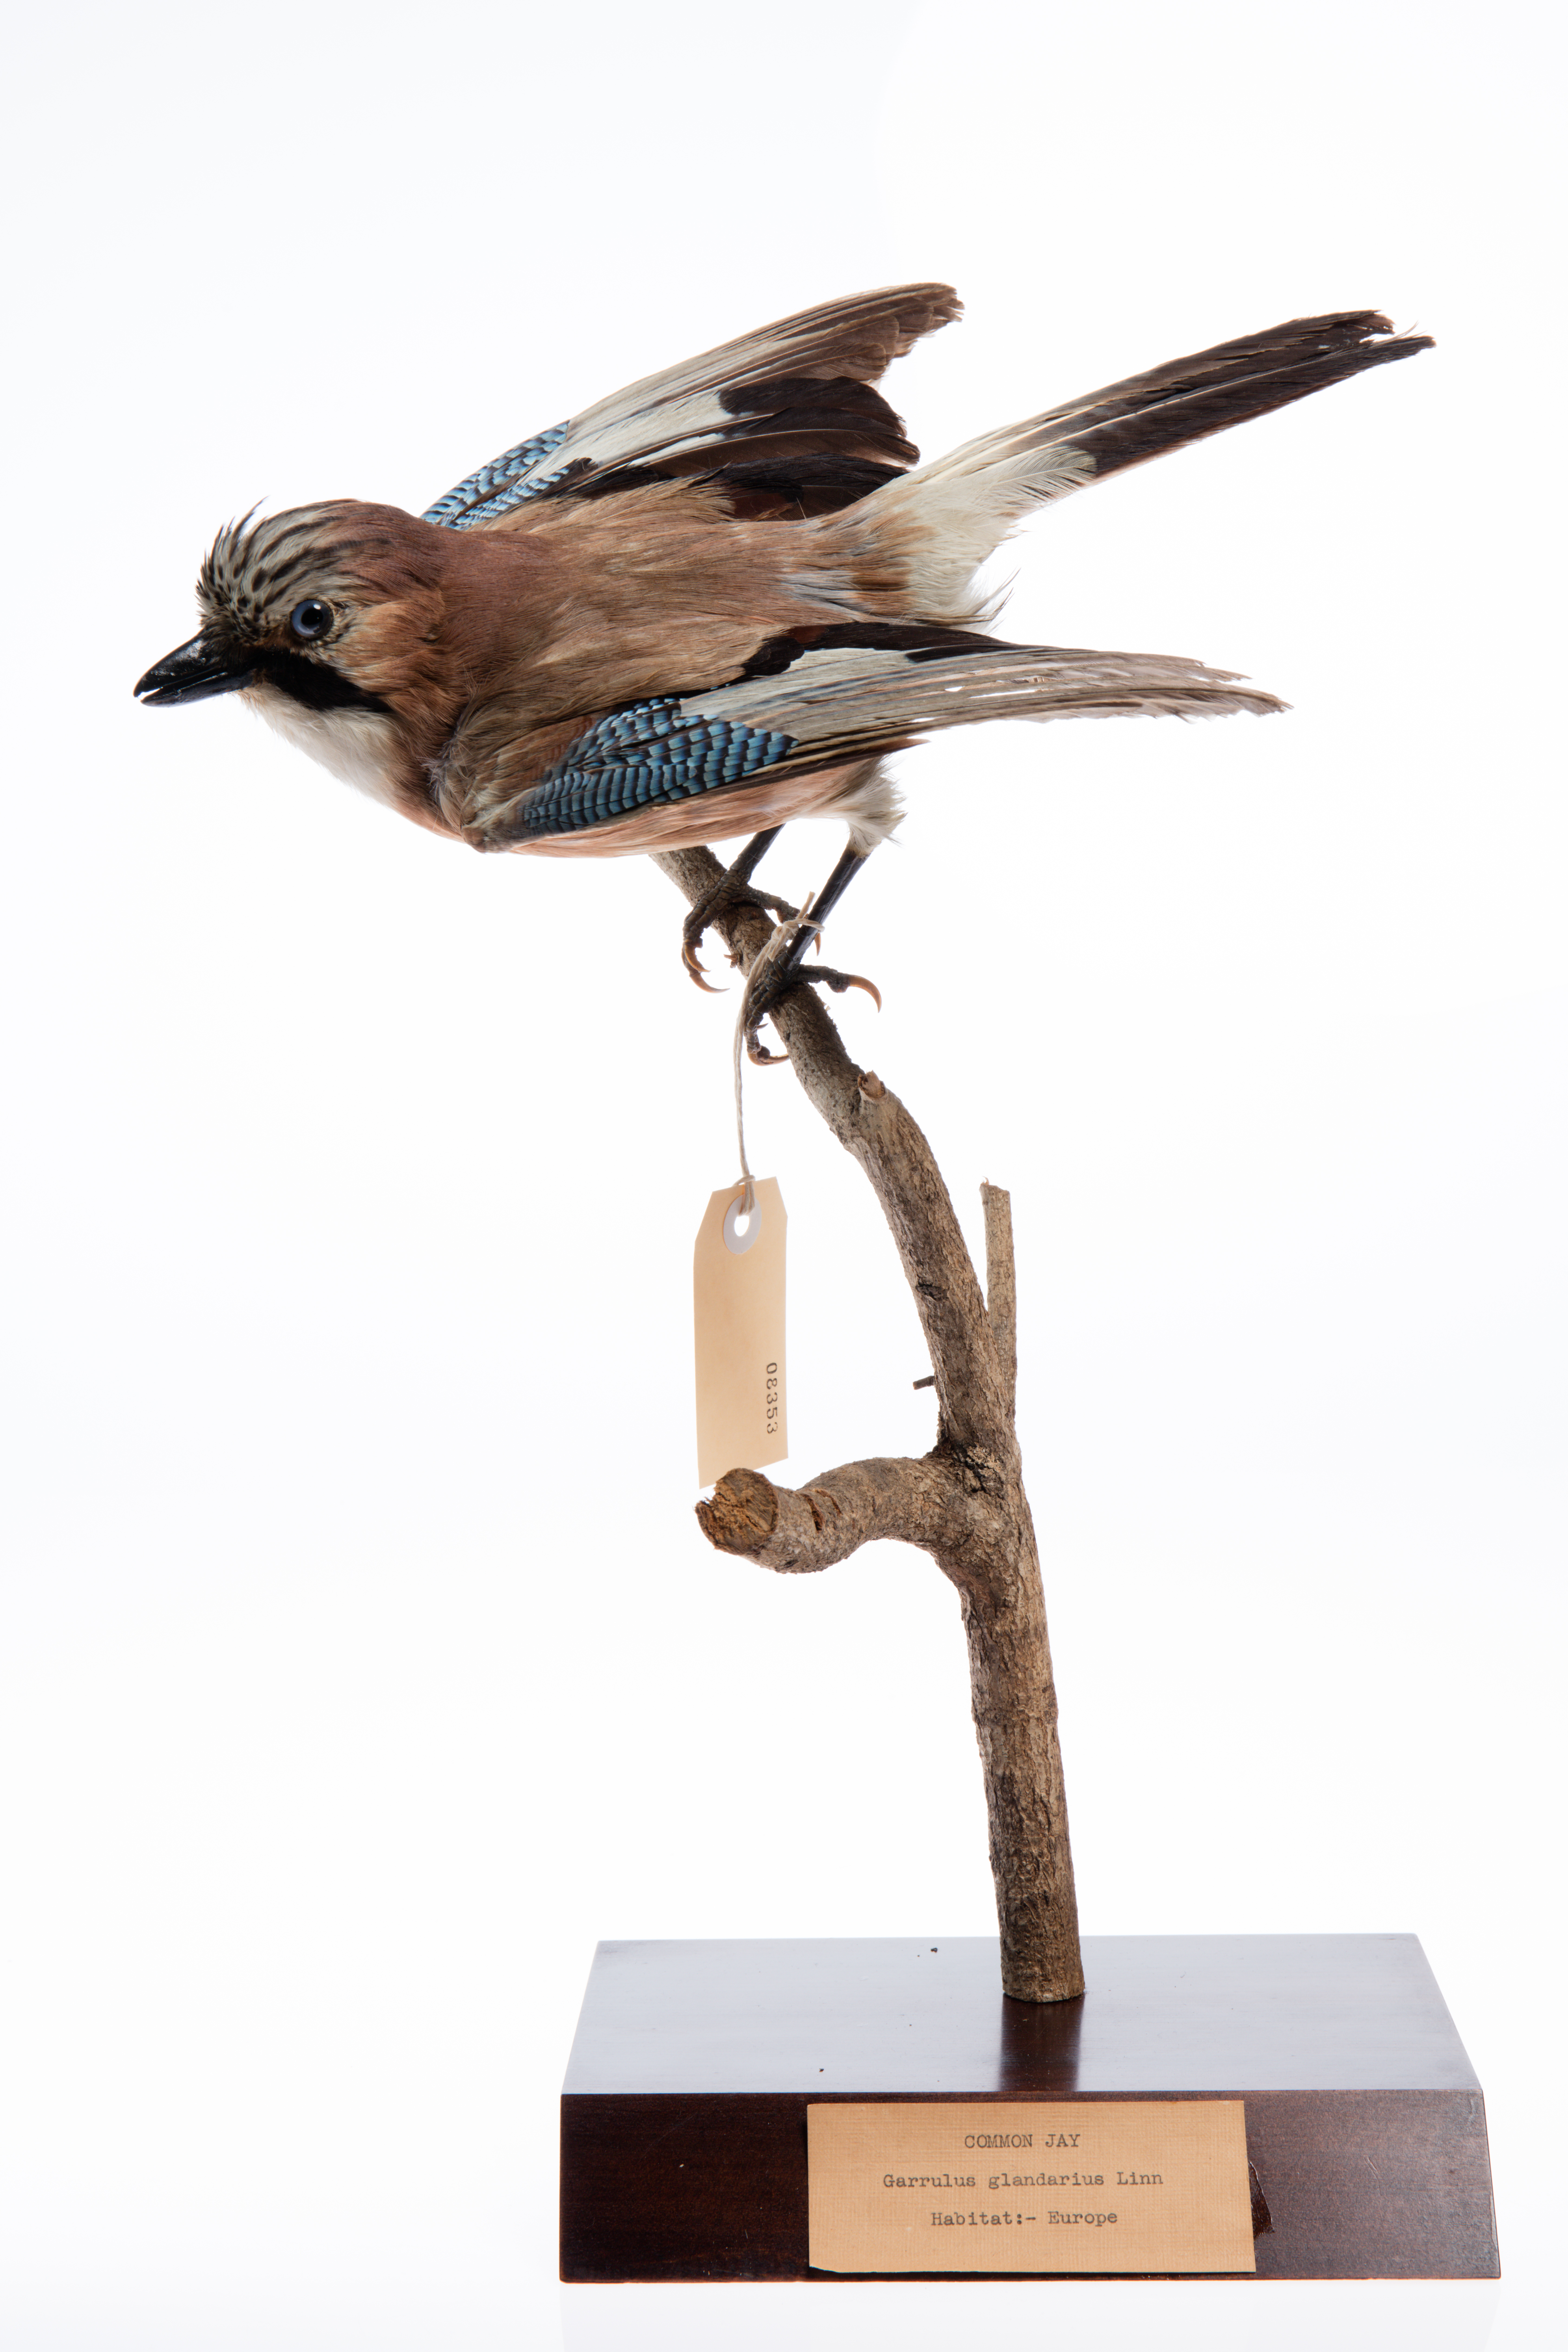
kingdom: Animalia
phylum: Chordata
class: Aves
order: Passeriformes
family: Corvidae
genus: Garrulus
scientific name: Garrulus glandarius
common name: Eurasian jay
